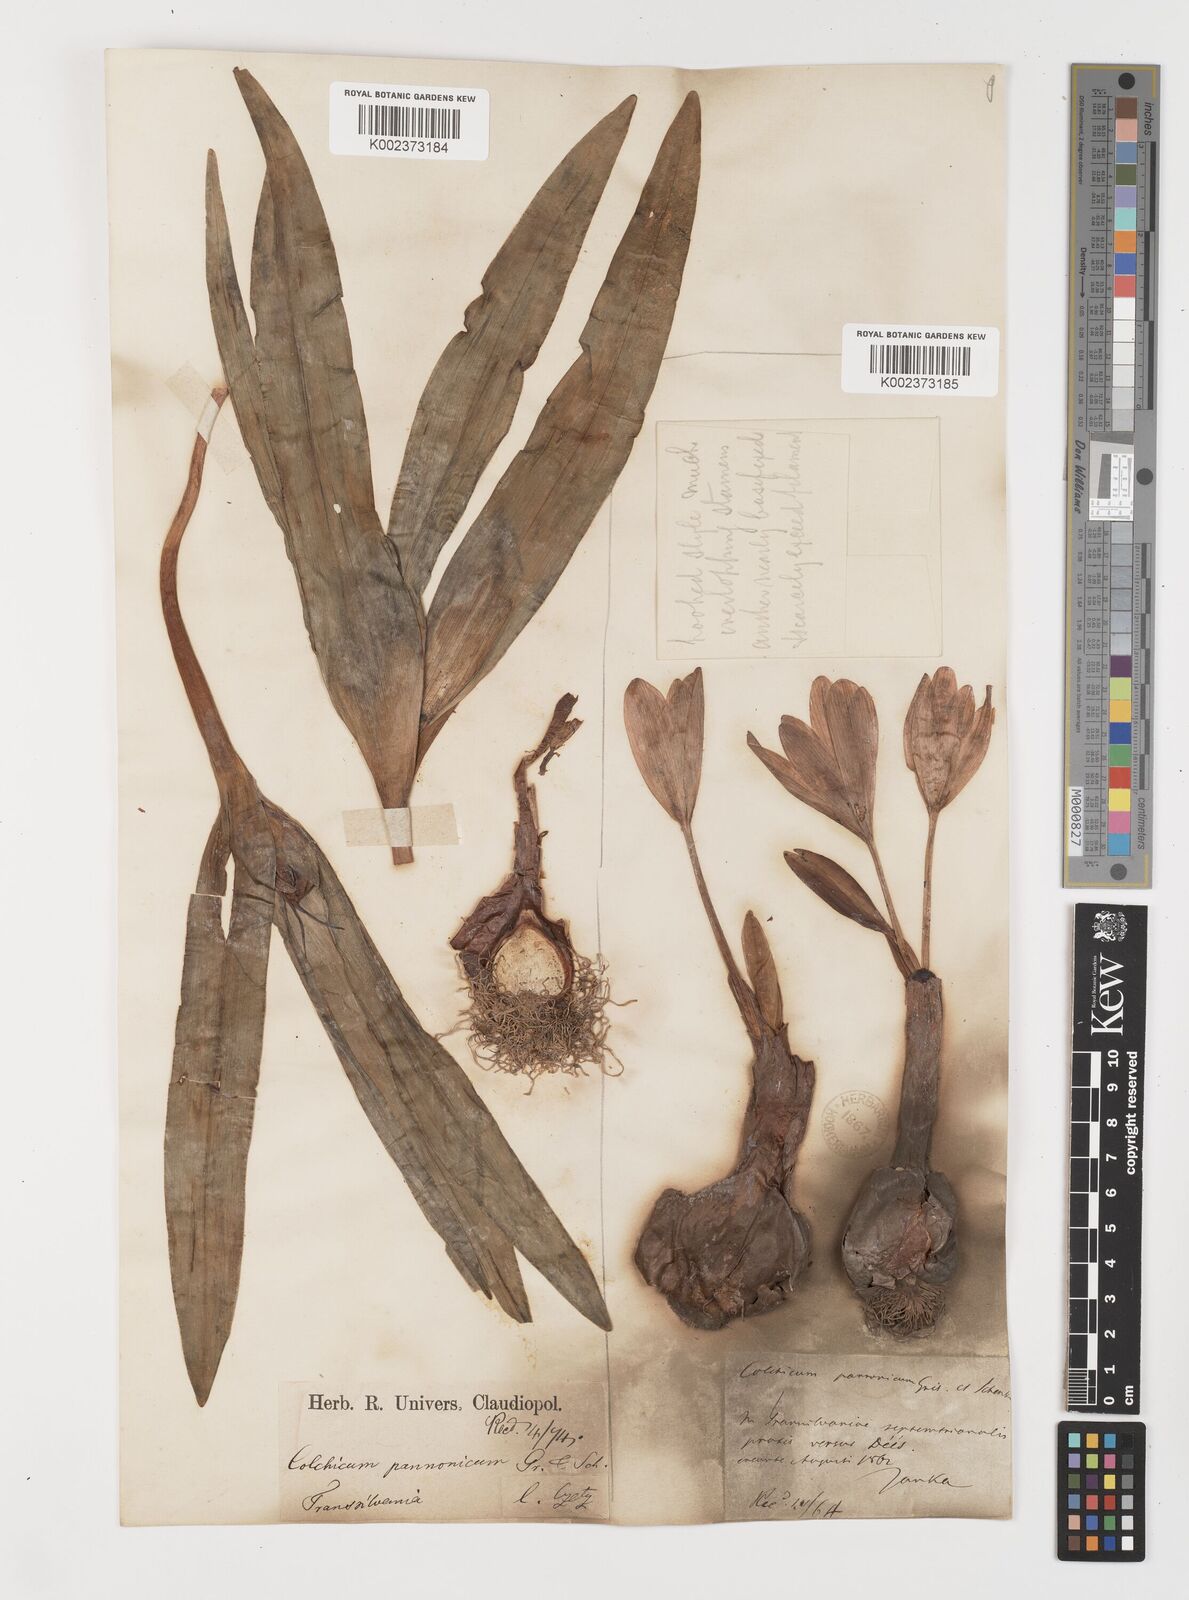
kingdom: Plantae
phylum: Tracheophyta
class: Liliopsida
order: Liliales
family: Colchicaceae
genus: Colchicum
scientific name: Colchicum autumnale
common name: Autumn crocus
